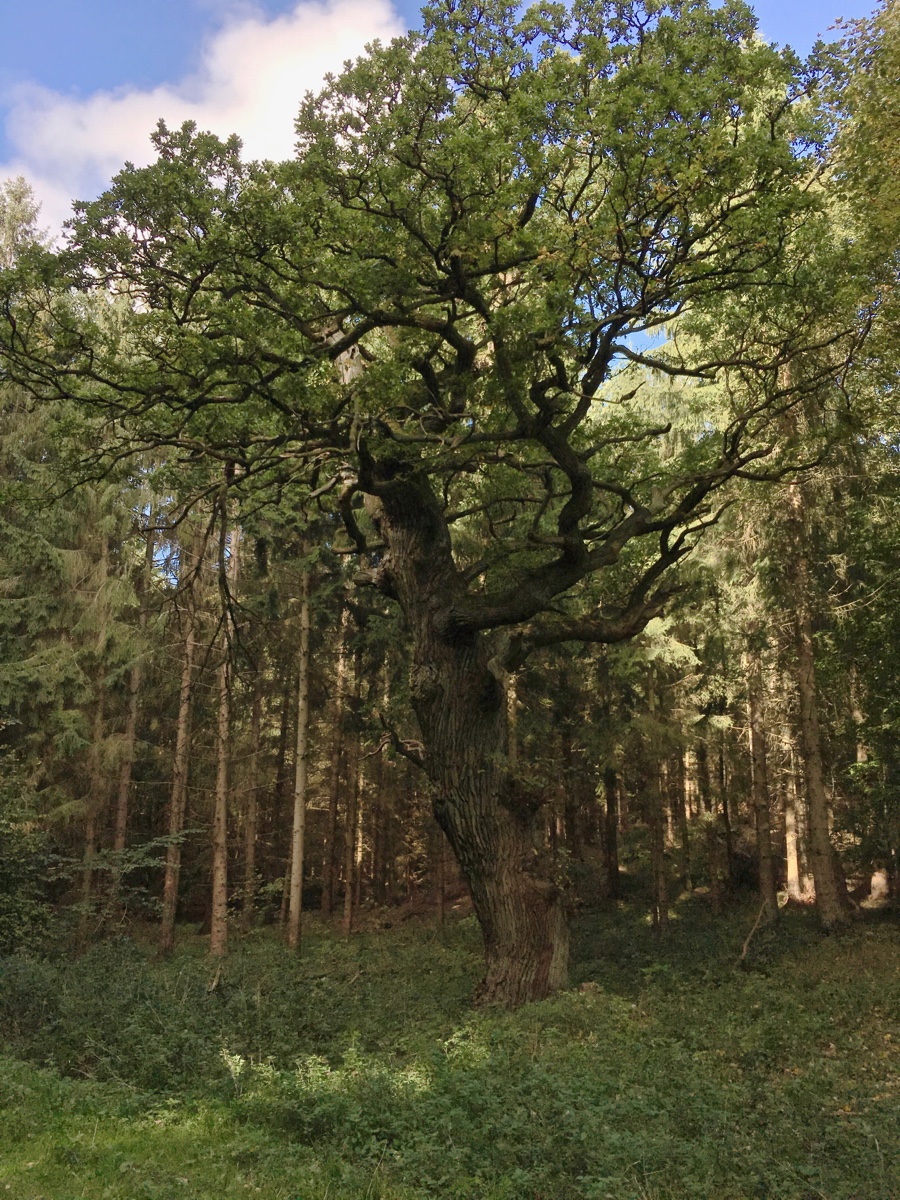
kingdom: Fungi
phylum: Basidiomycota
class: Agaricomycetes
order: Agaricales
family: Fistulinaceae
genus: Fistulina
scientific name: Fistulina hepatica
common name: oksetunge
